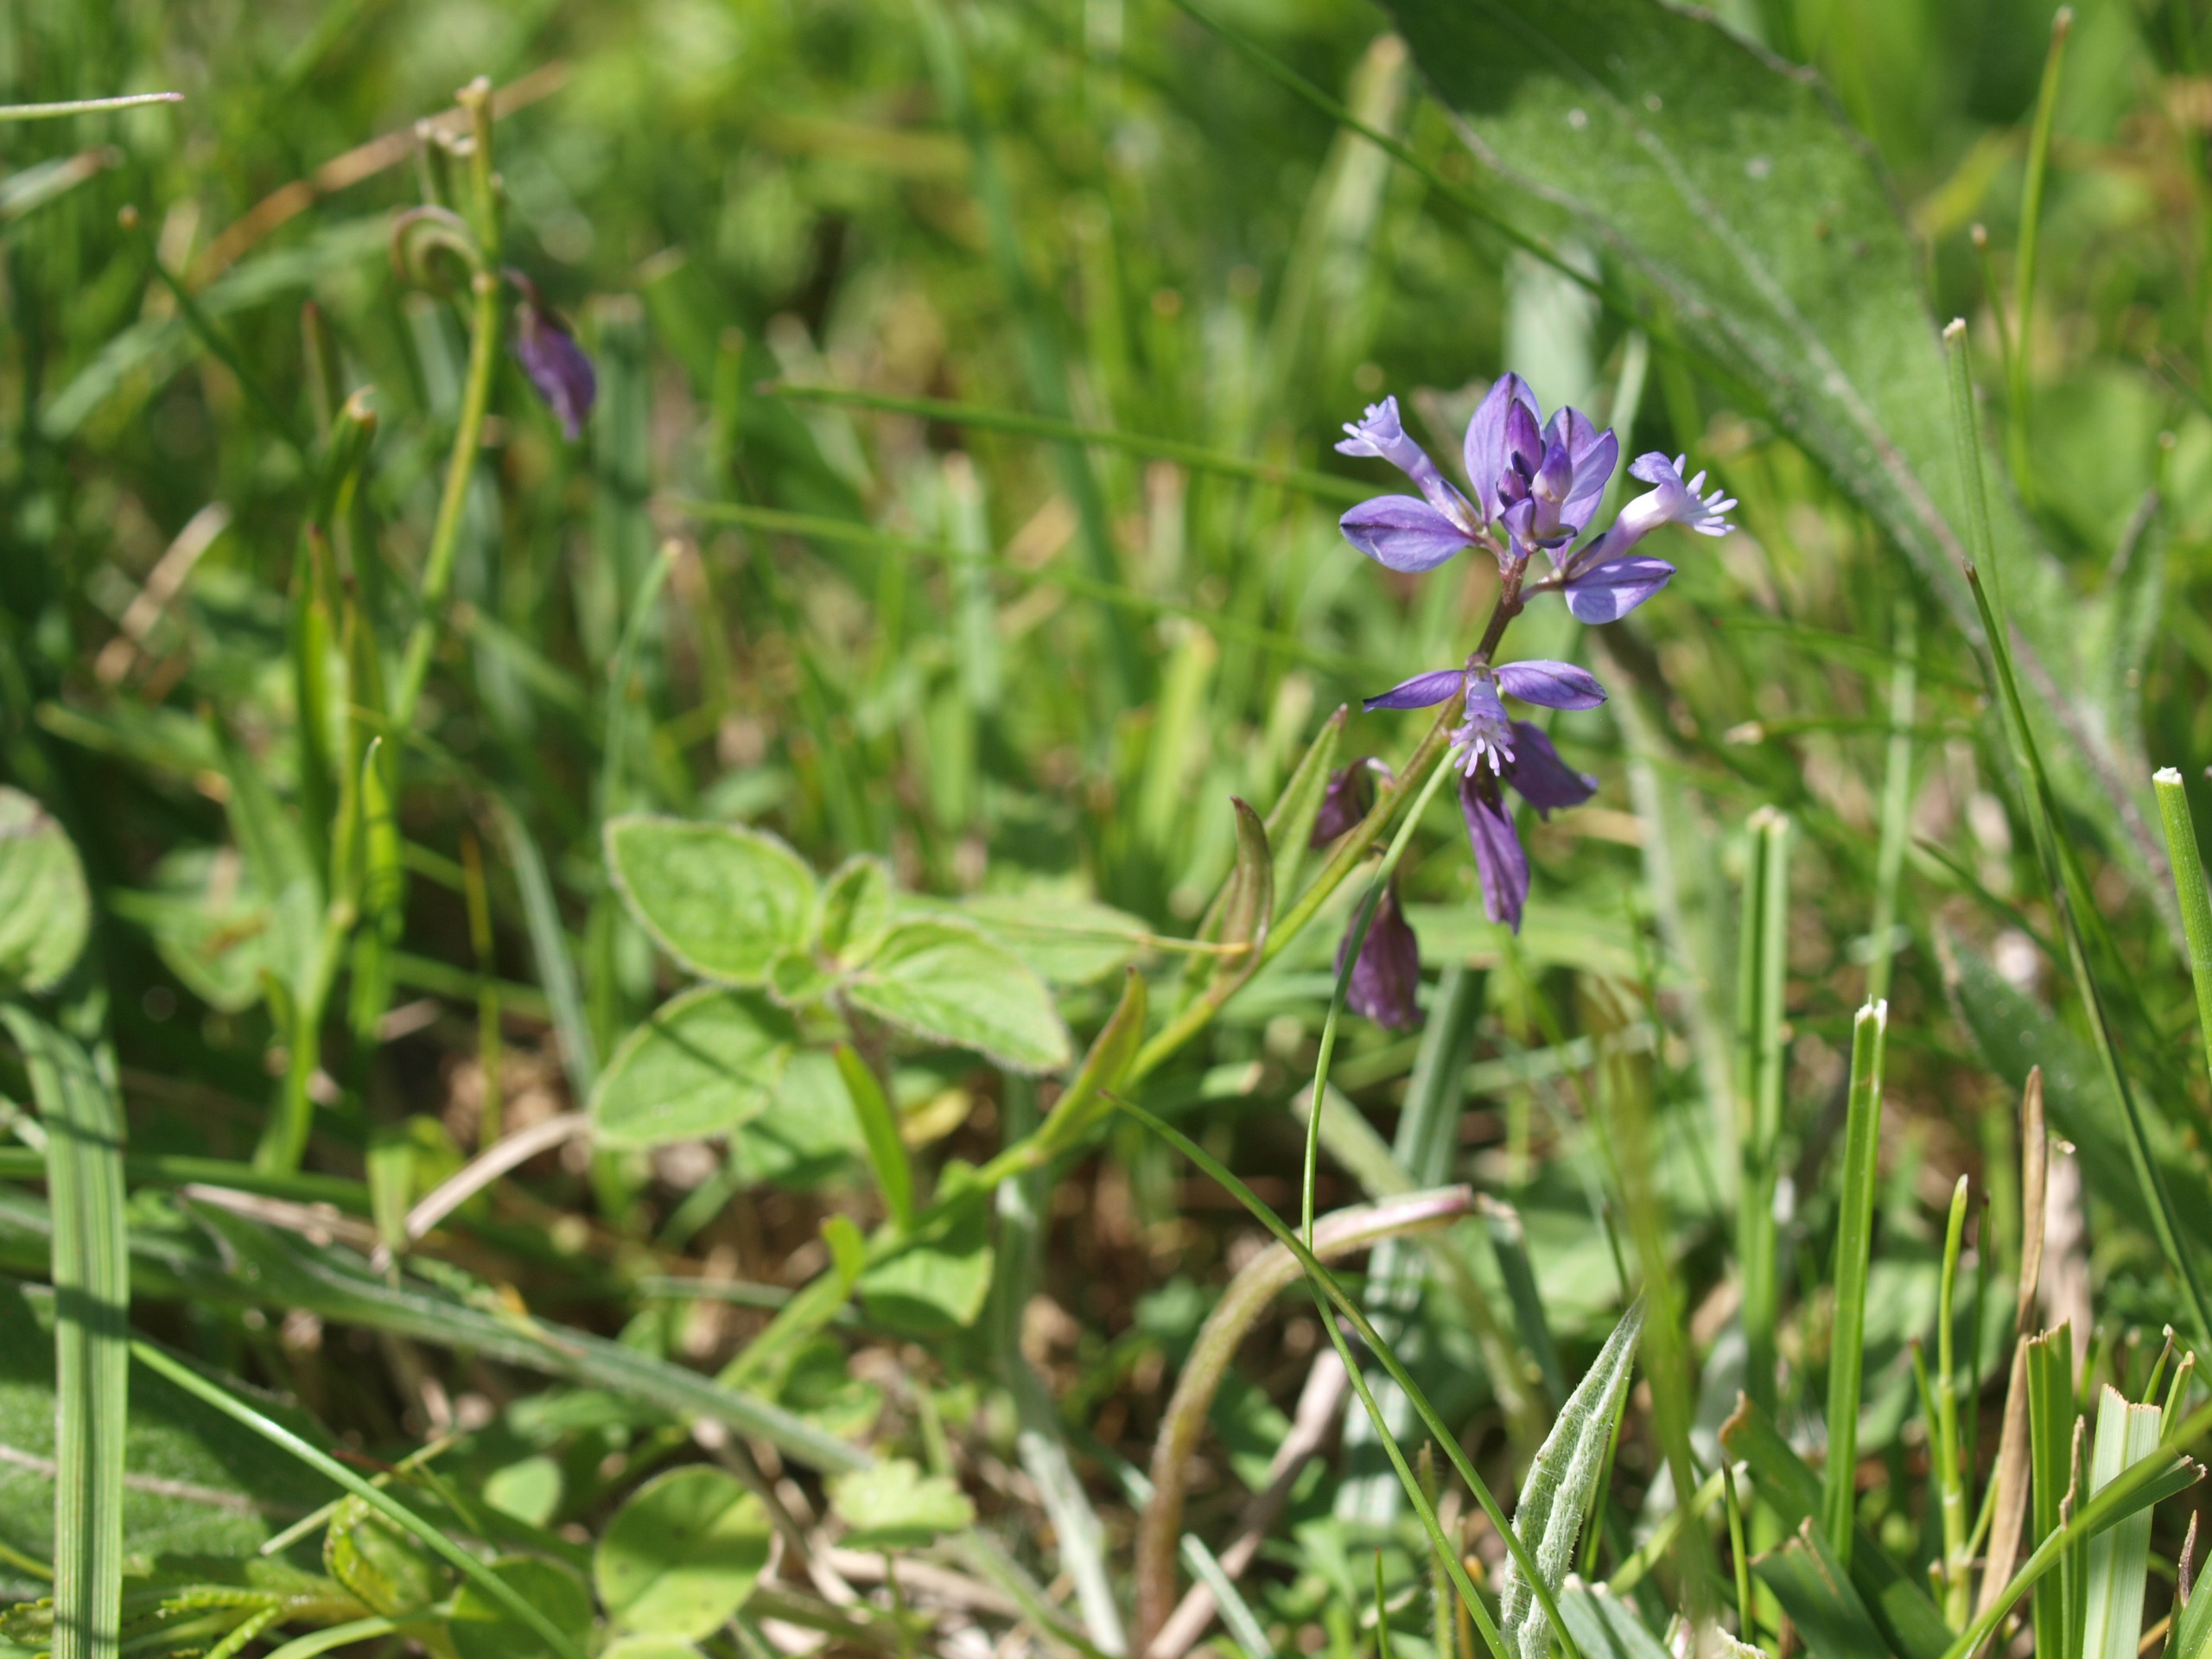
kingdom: Plantae
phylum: Tracheophyta
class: Magnoliopsida
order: Fabales
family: Polygalaceae
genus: Polygala
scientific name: Polygala vulgaris
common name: Almindelig mælkeurt
